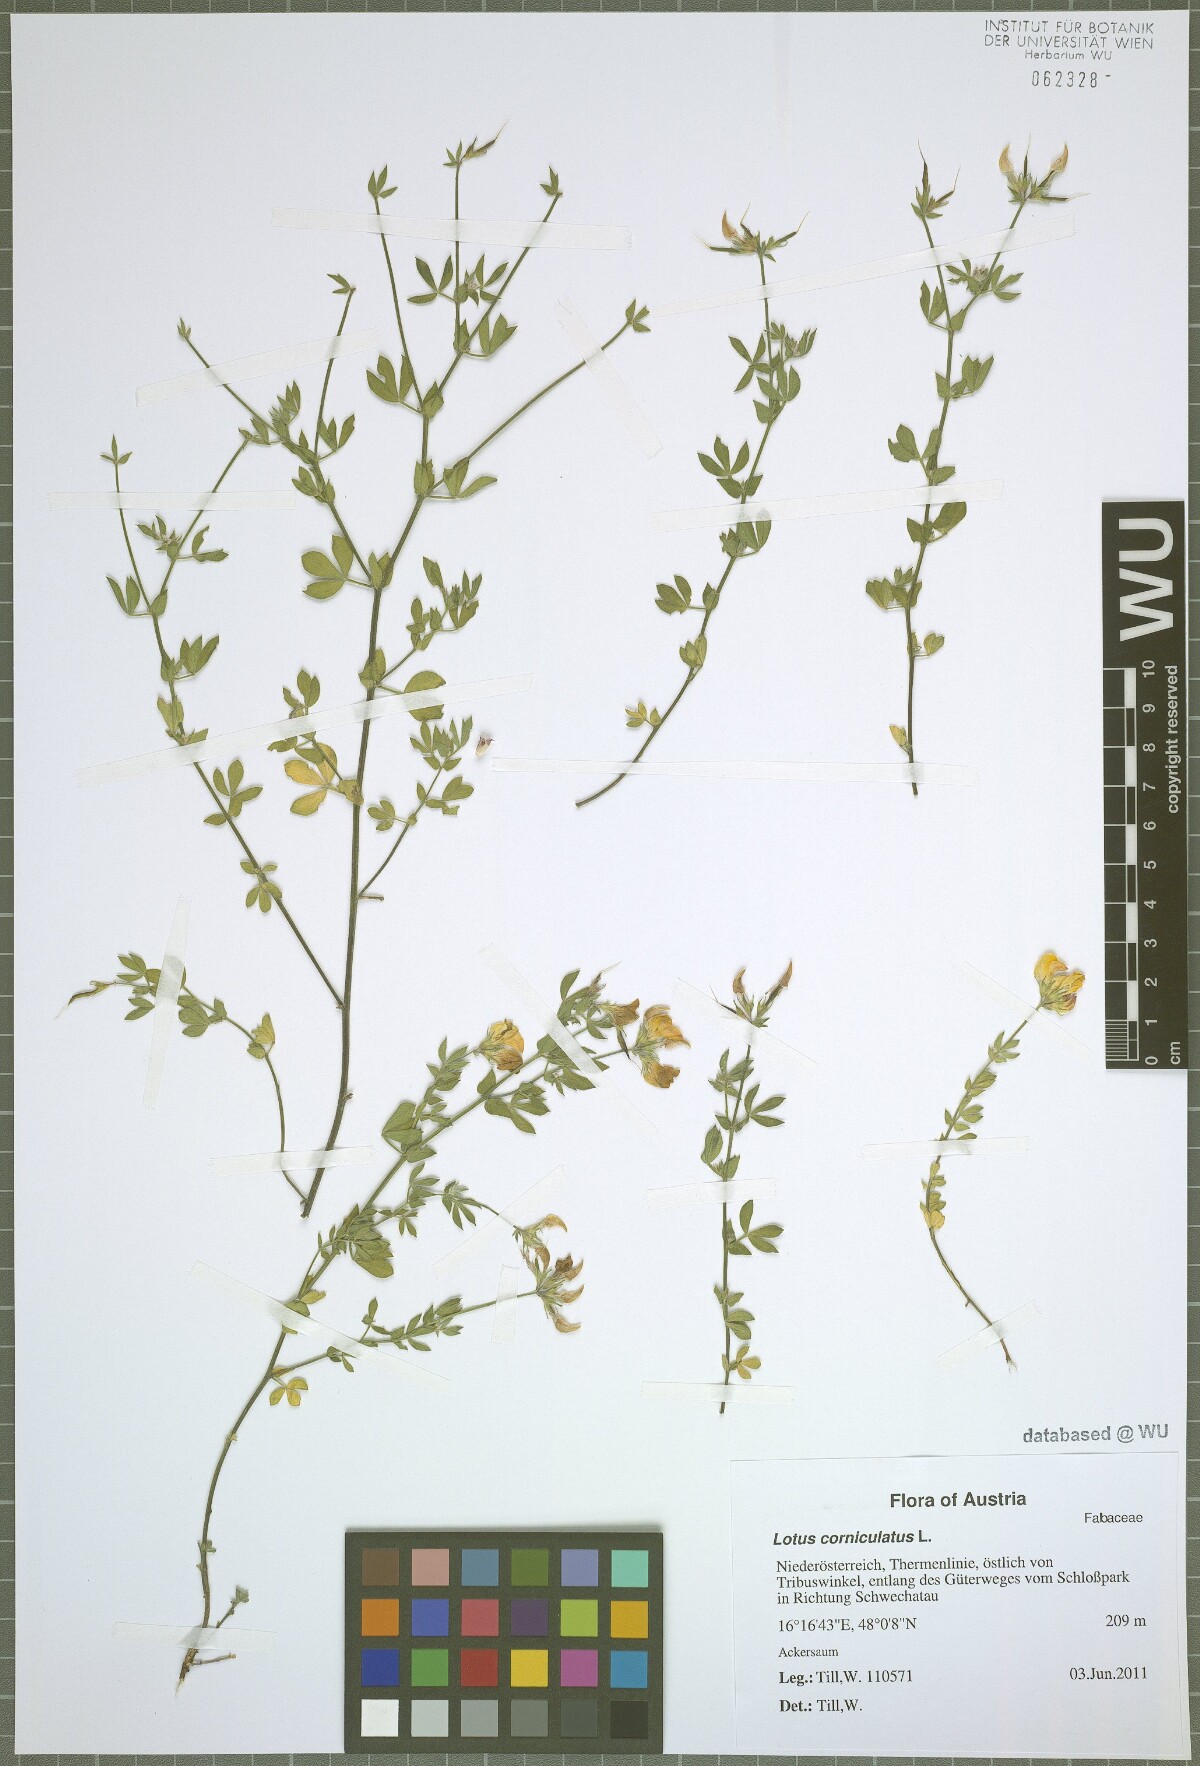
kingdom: Plantae
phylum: Tracheophyta
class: Magnoliopsida
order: Fabales
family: Fabaceae
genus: Lotus
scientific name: Lotus corniculatus
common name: Common bird's-foot-trefoil
